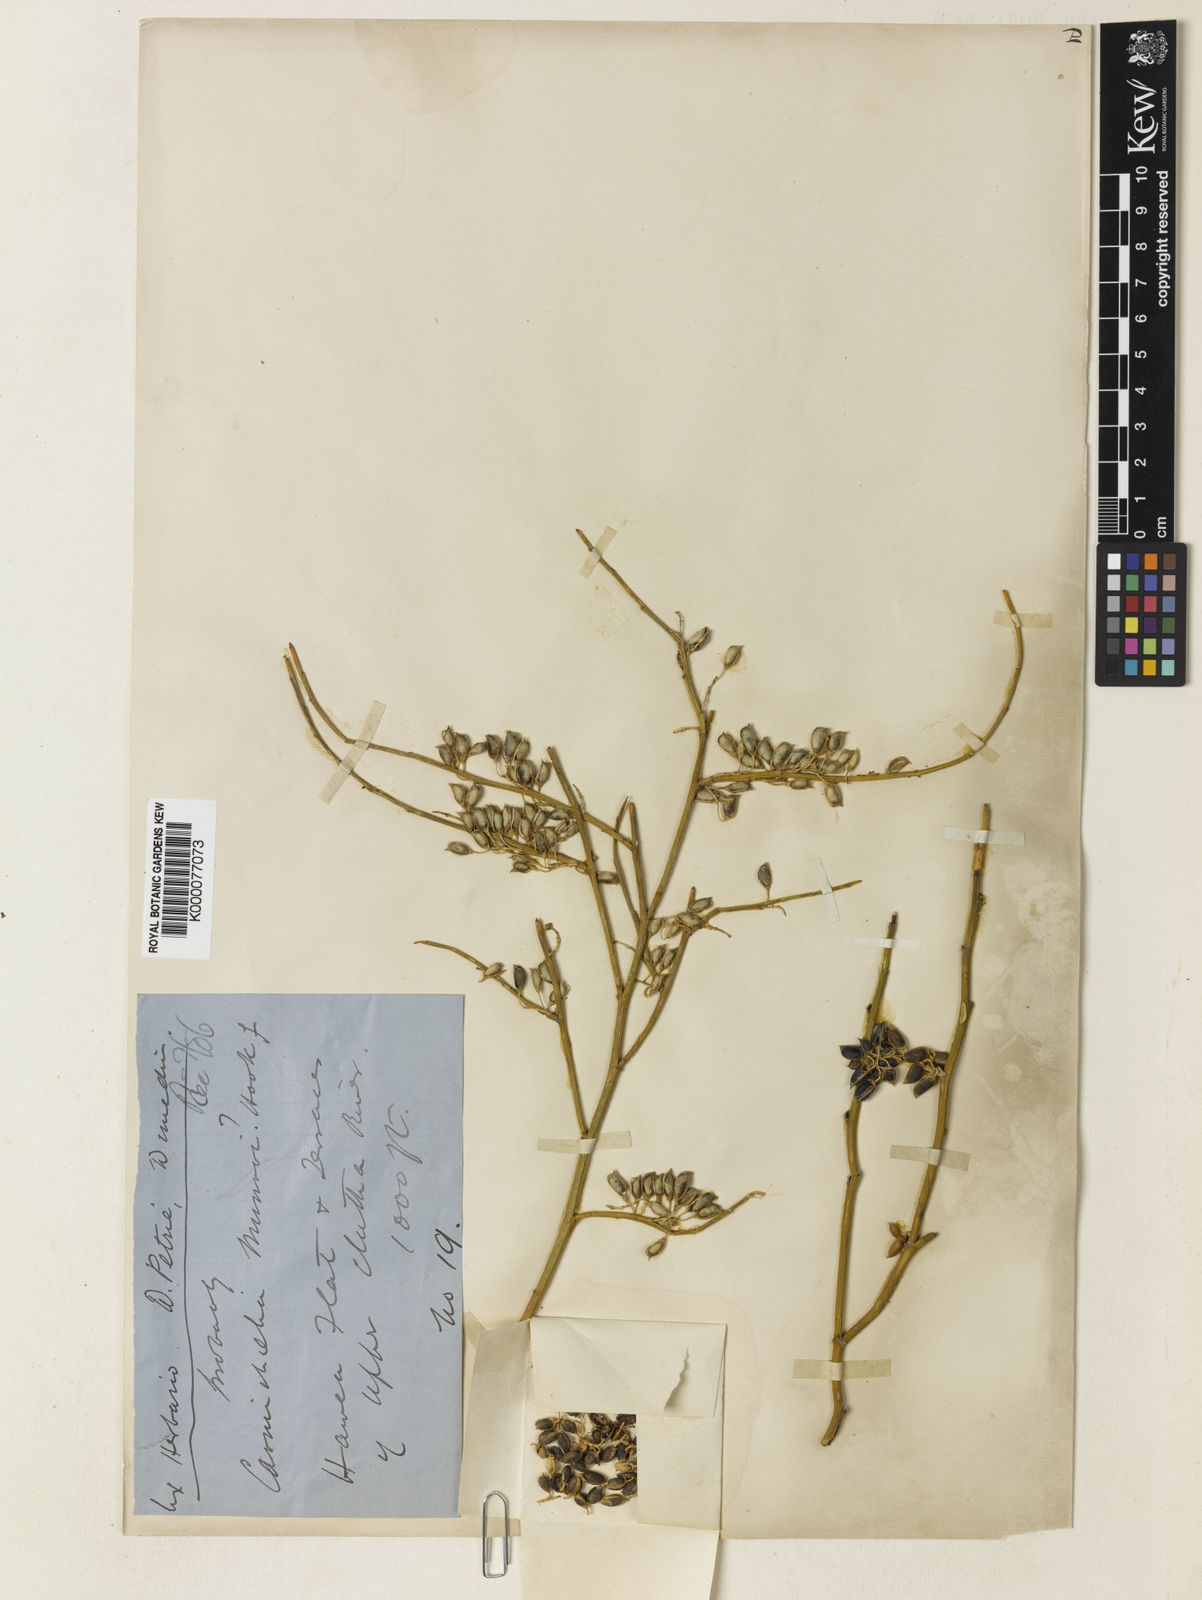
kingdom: Plantae
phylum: Tracheophyta
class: Magnoliopsida
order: Fabales
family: Fabaceae
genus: Carmichaelia
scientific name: Carmichaelia petriei
